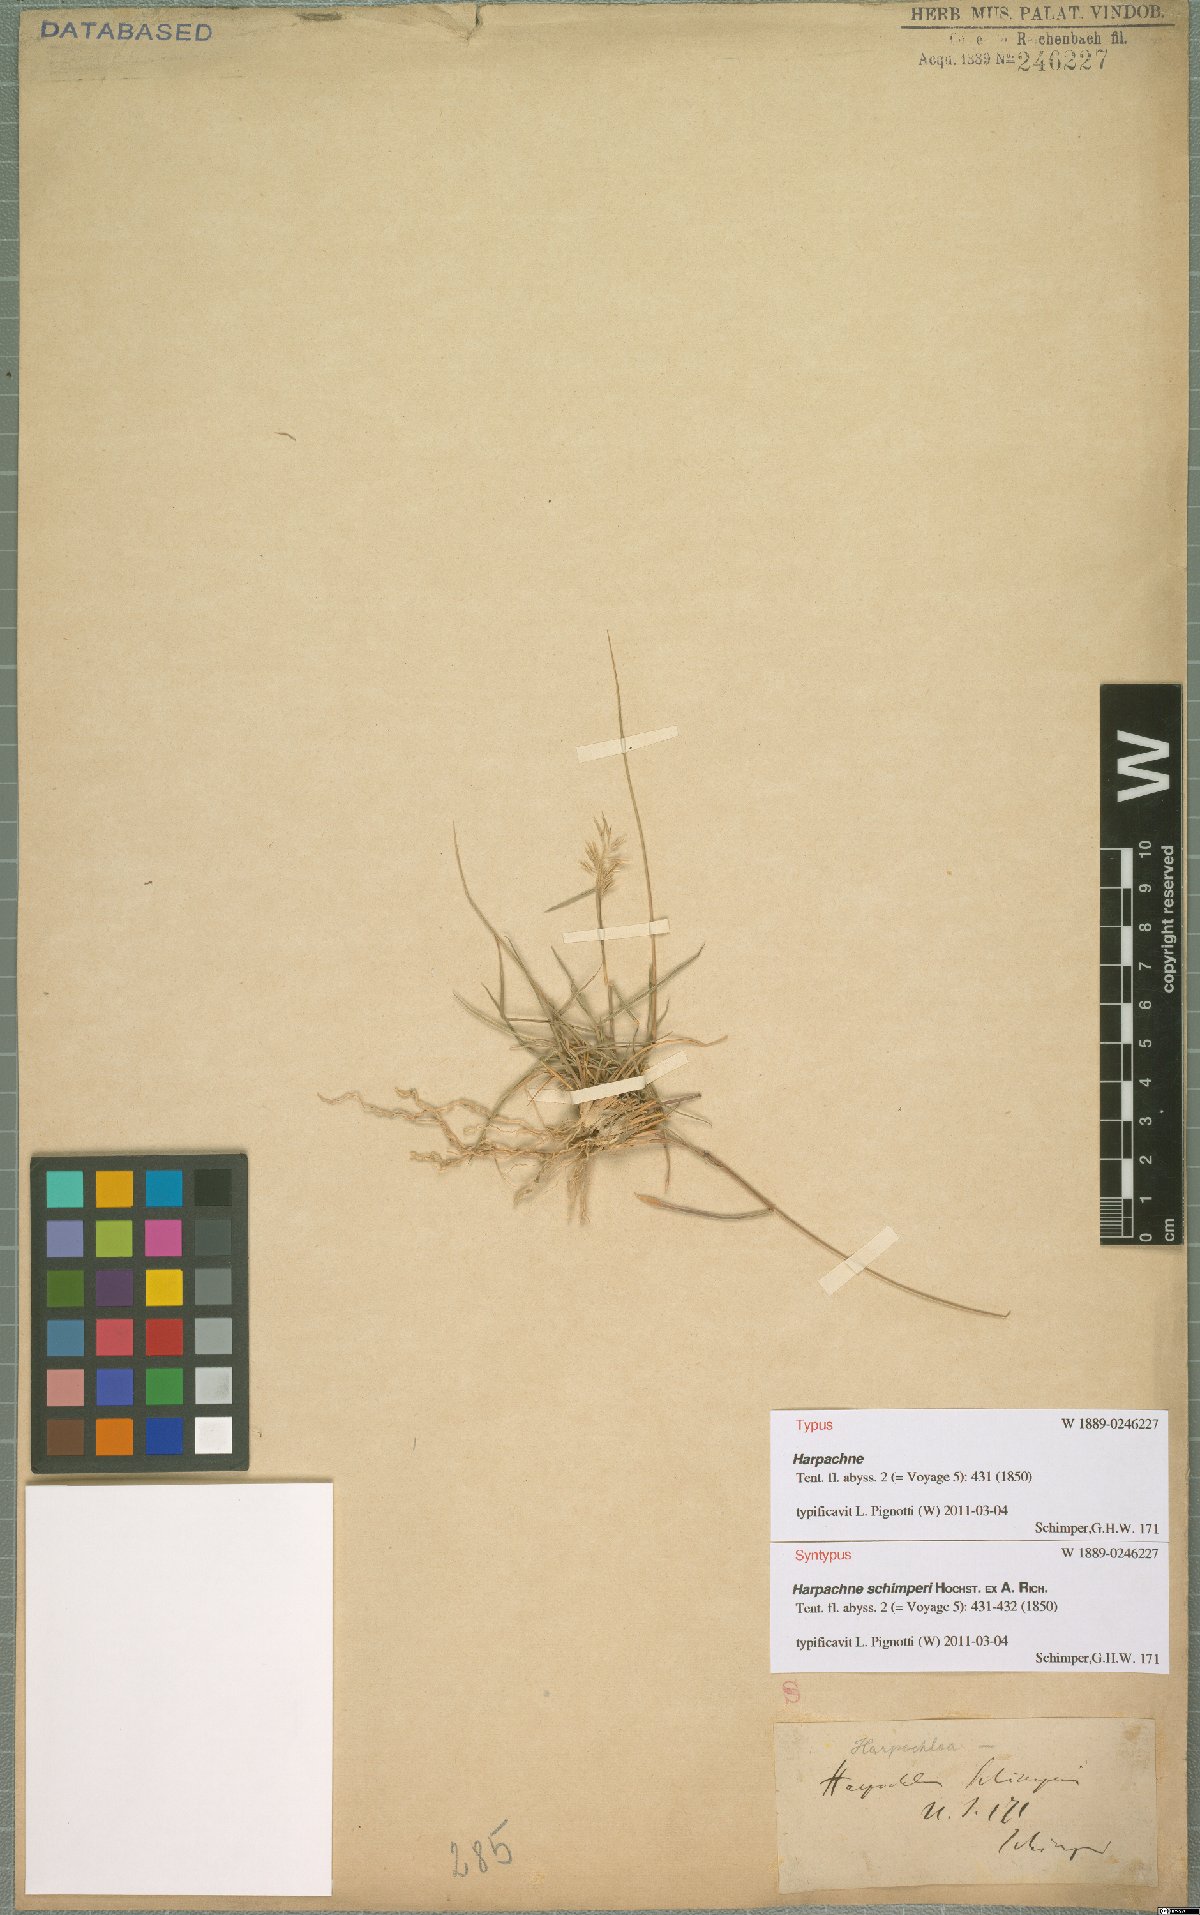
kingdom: Plantae
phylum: Tracheophyta
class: Liliopsida
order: Poales
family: Poaceae
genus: Harpachne
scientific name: Harpachne schimperi
